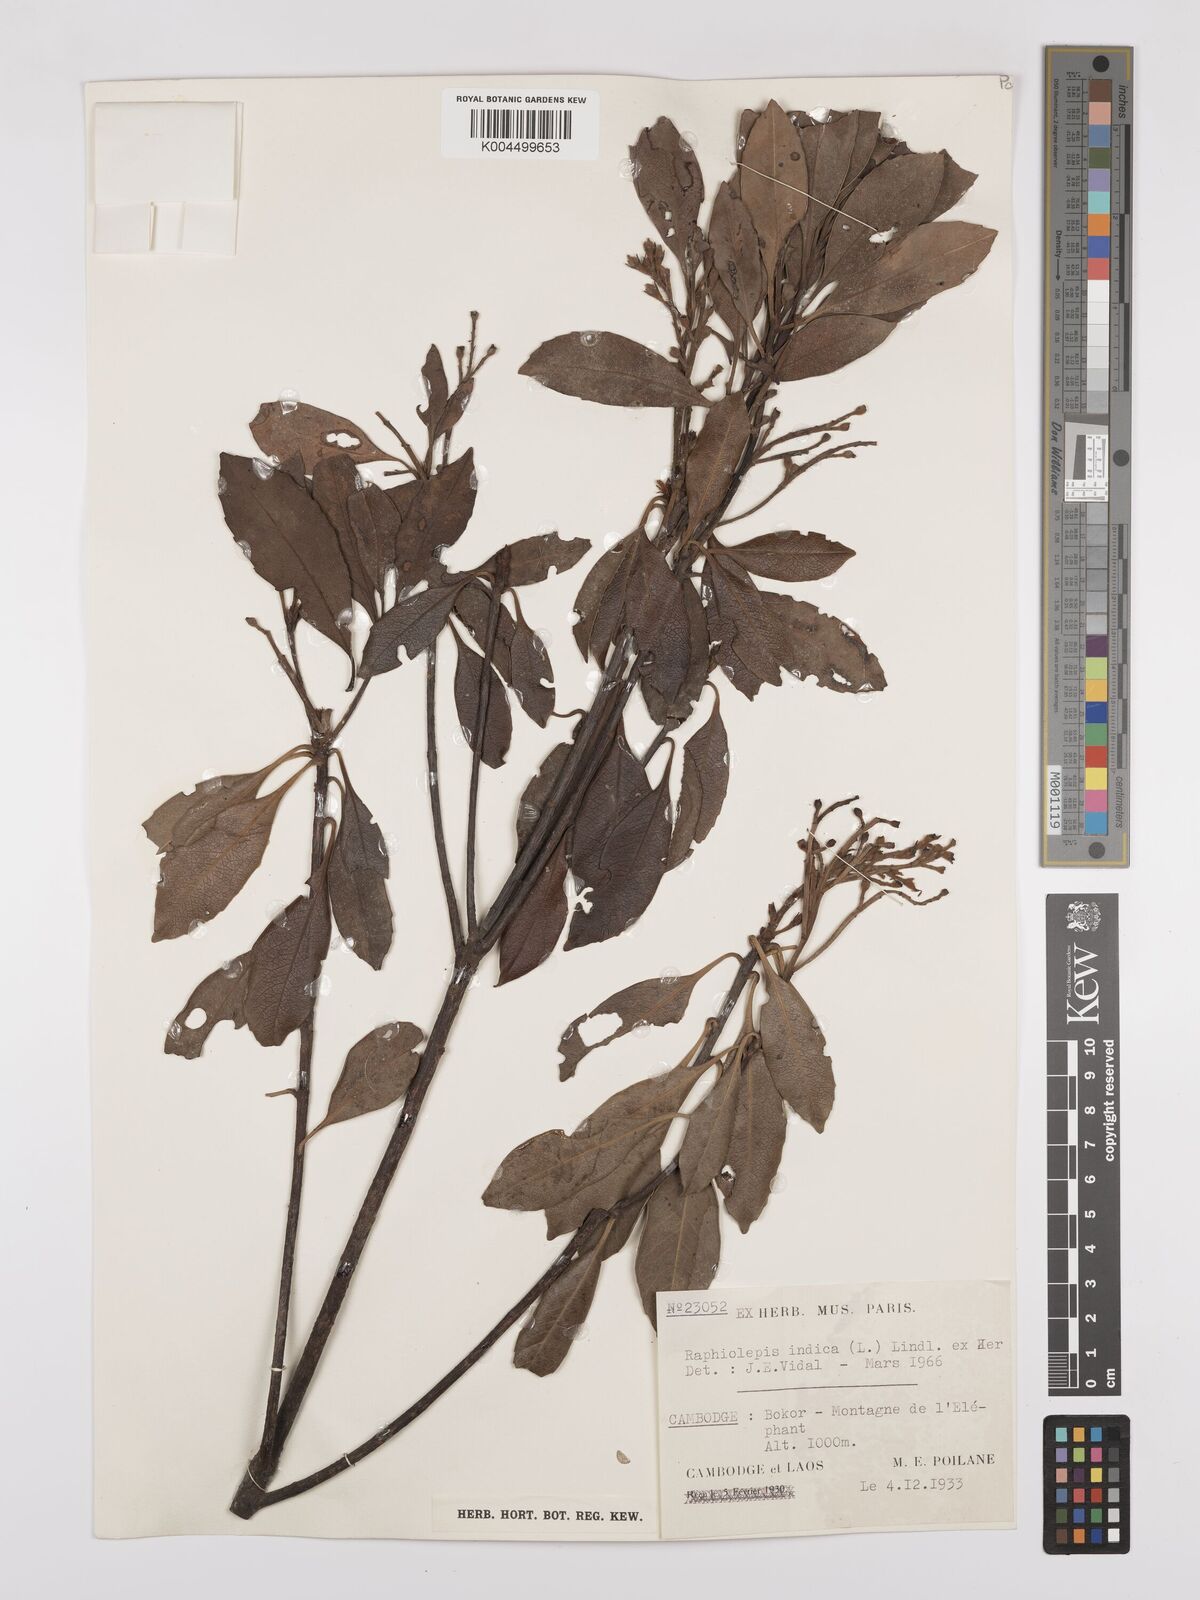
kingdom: Plantae
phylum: Tracheophyta
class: Magnoliopsida
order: Rosales
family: Rosaceae
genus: Rhaphiolepis
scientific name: Rhaphiolepis indica
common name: India-hawthorn
